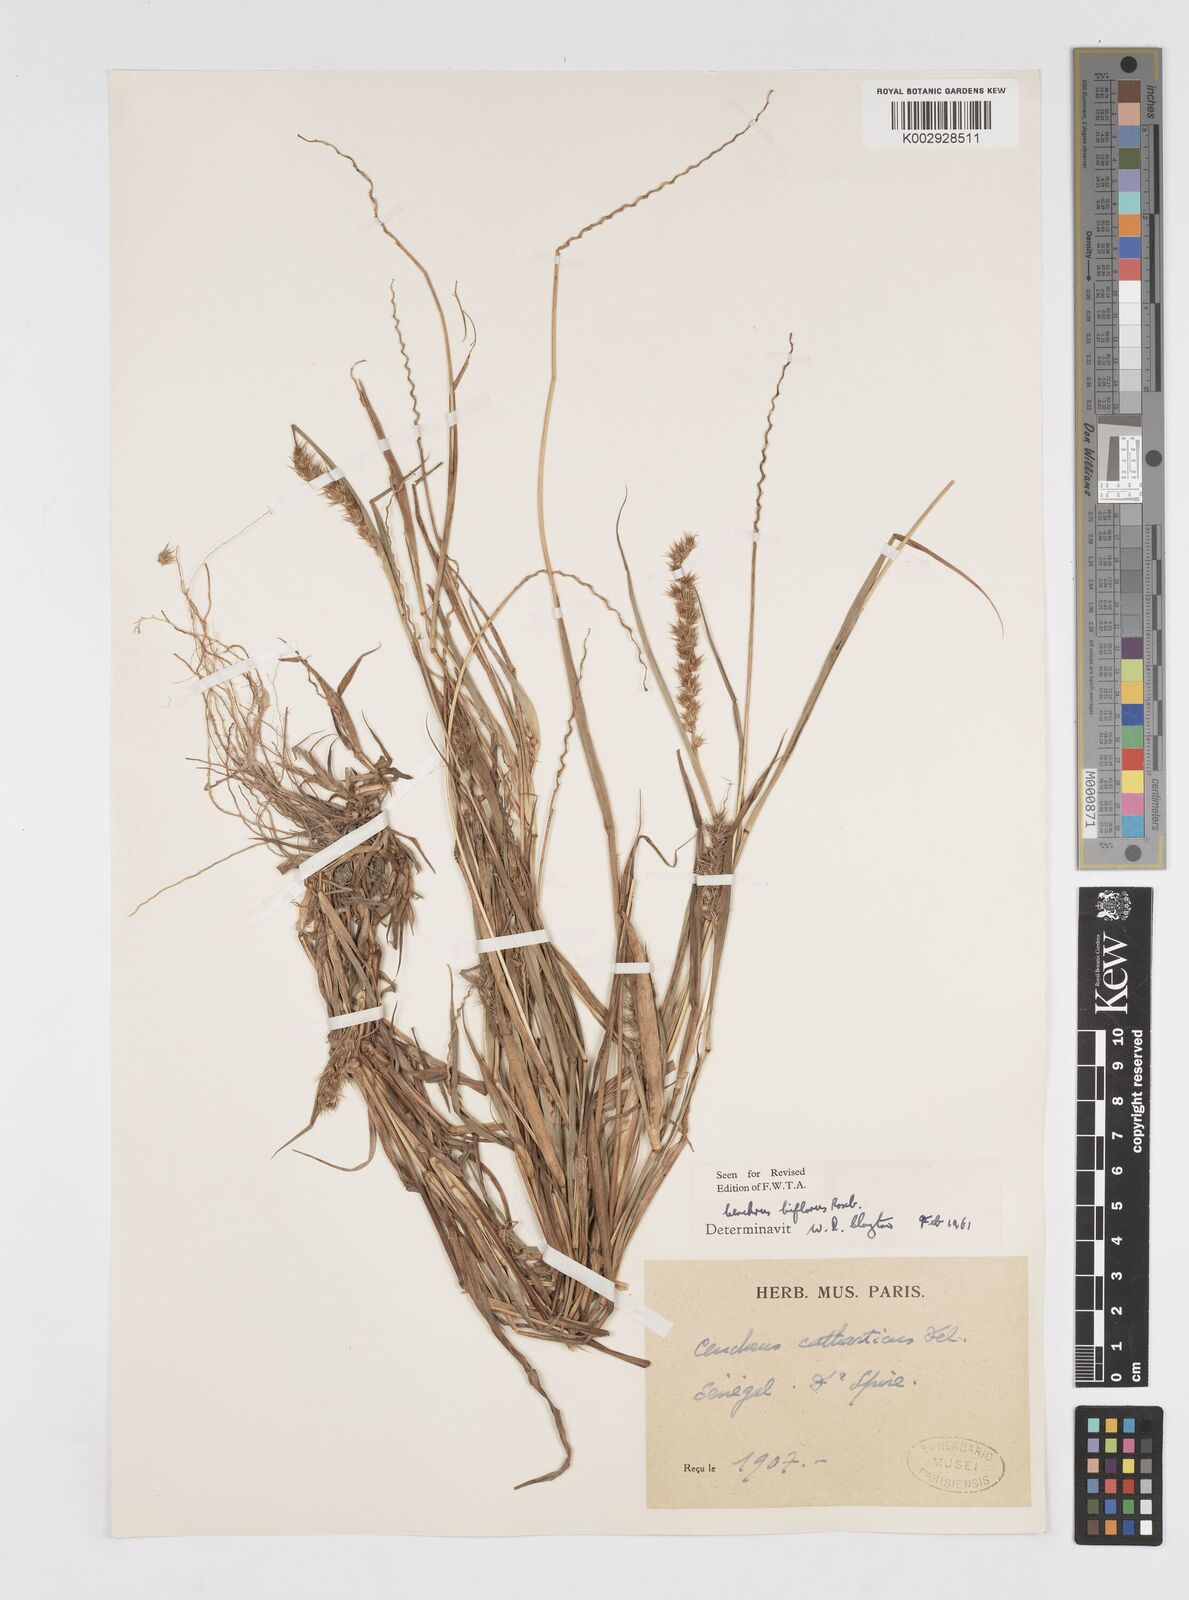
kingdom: Plantae
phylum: Tracheophyta
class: Liliopsida
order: Poales
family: Poaceae
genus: Cenchrus
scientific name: Cenchrus biflorus
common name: Indian sandbur
